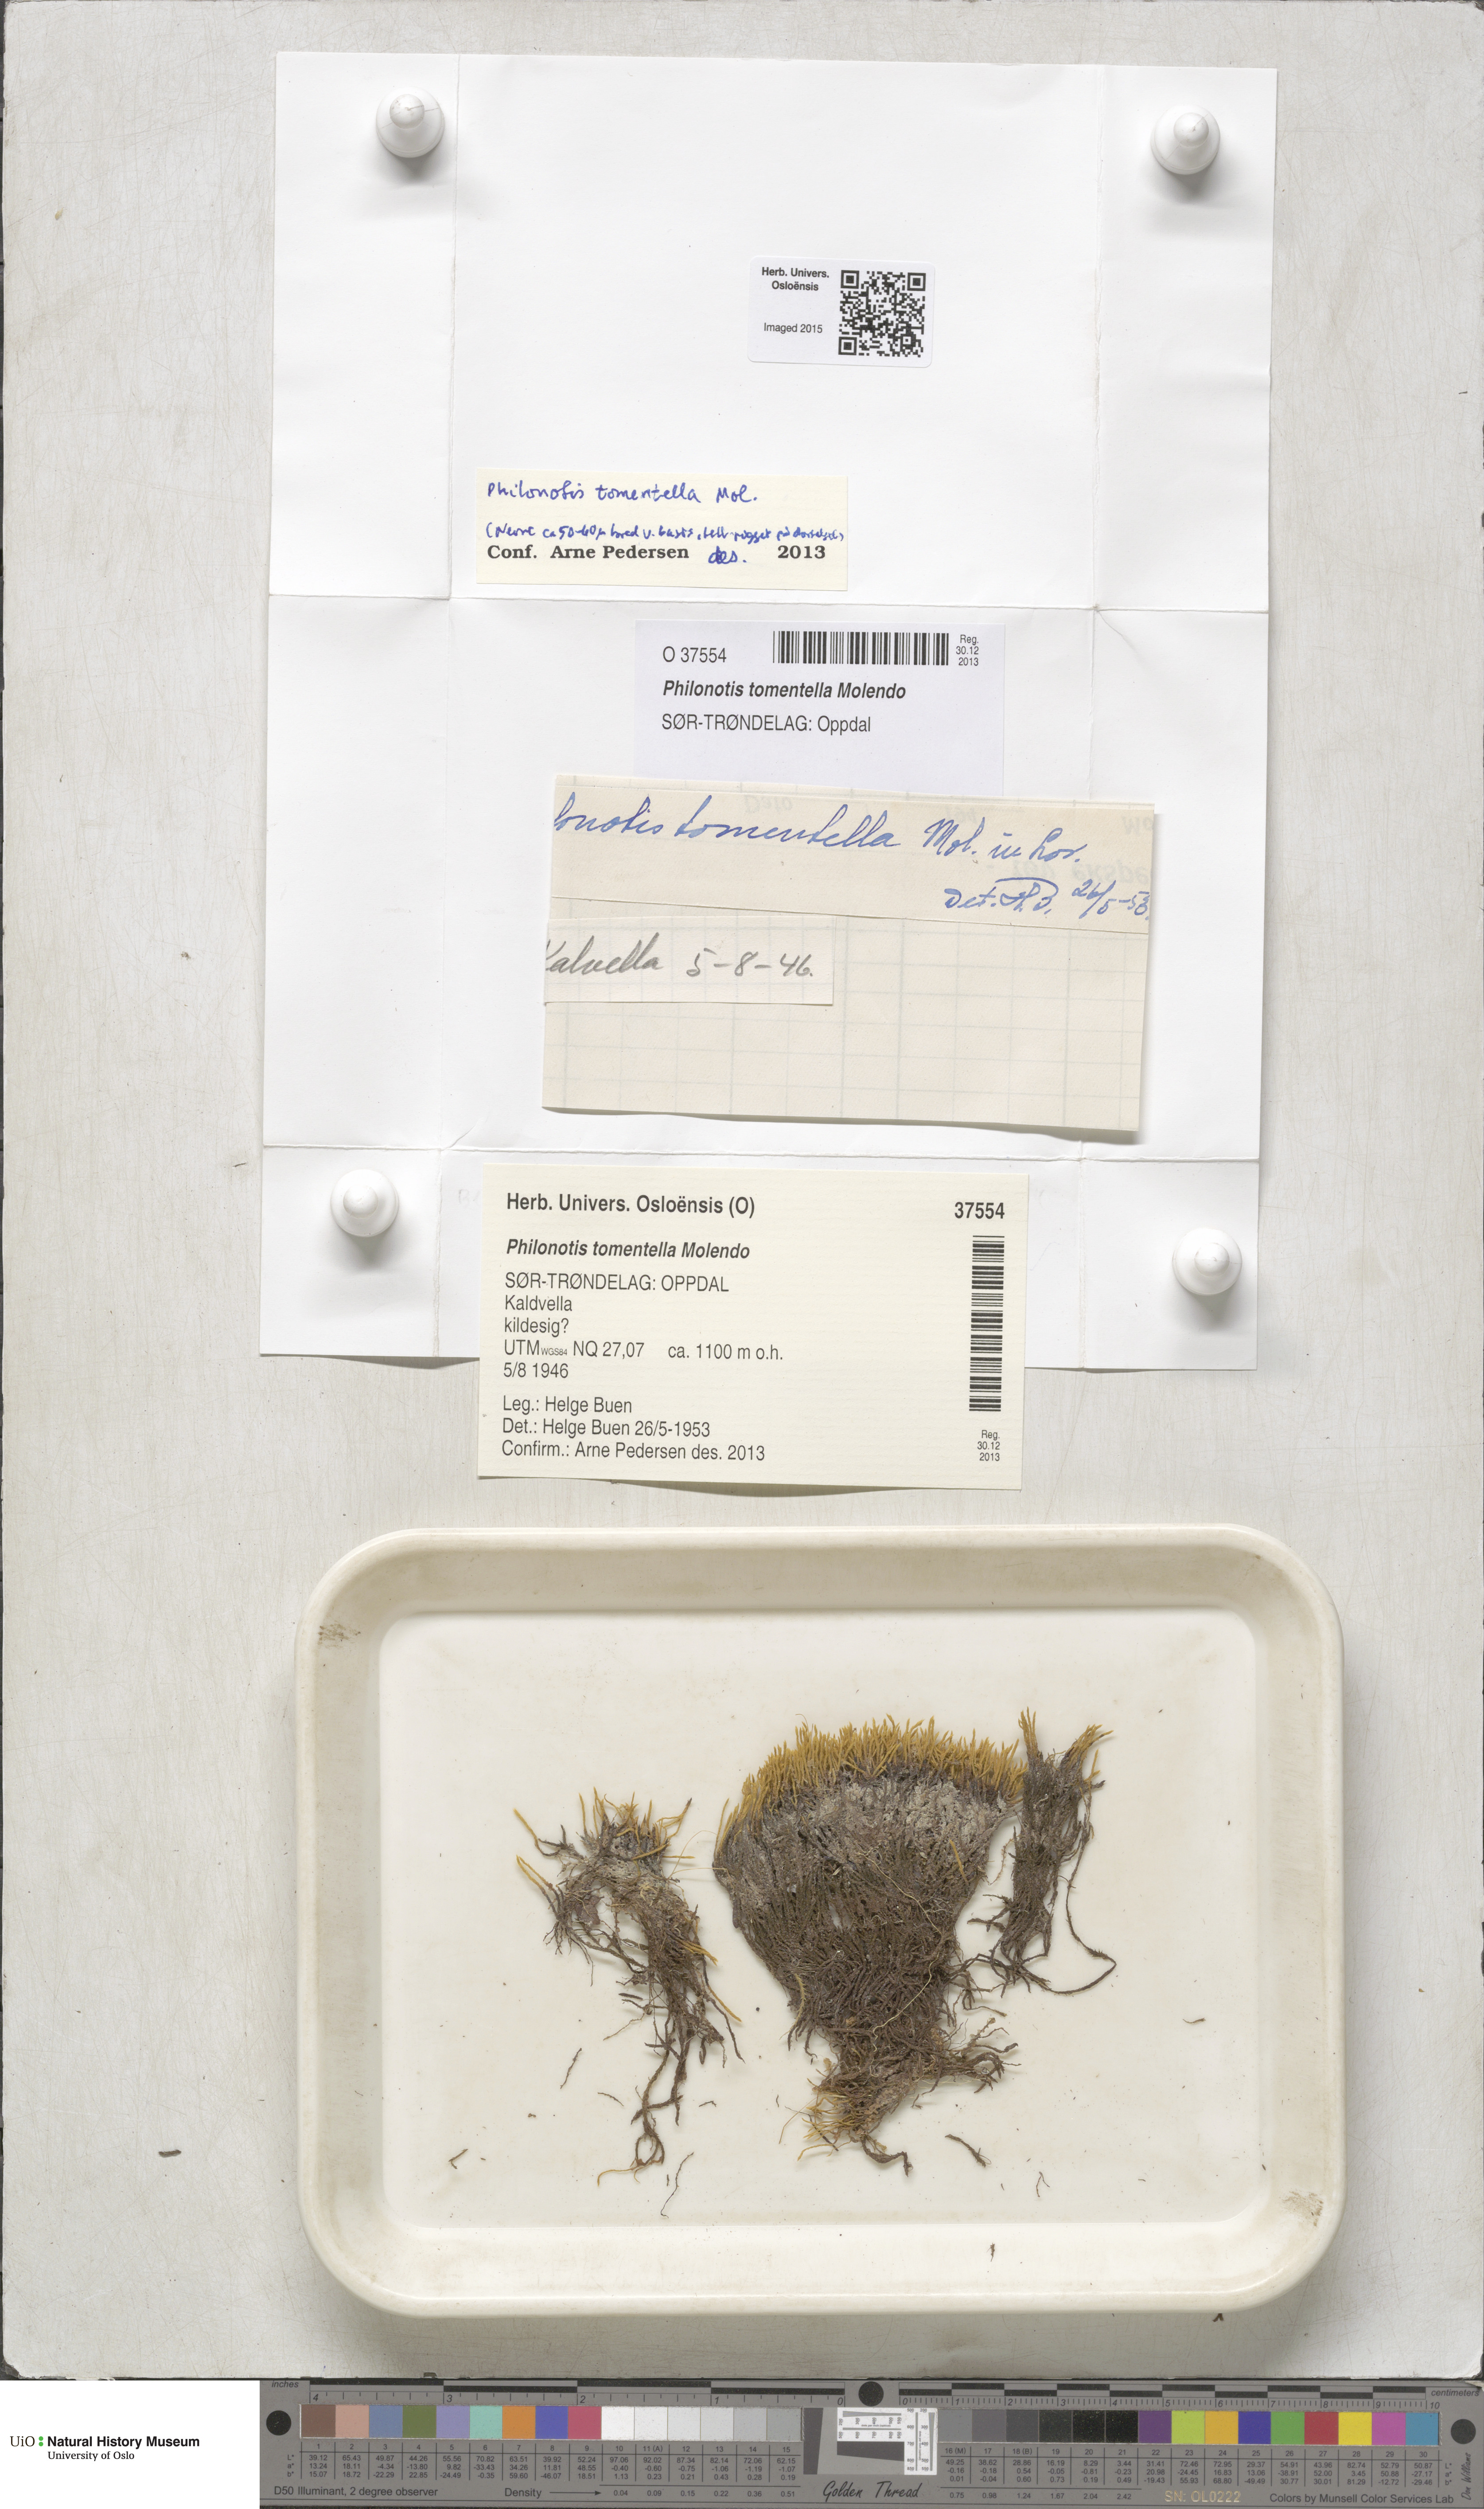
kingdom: Plantae
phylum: Bryophyta
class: Bryopsida
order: Bartramiales
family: Bartramiaceae
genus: Philonotis
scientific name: Philonotis tomentella
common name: Woolly apple moss
